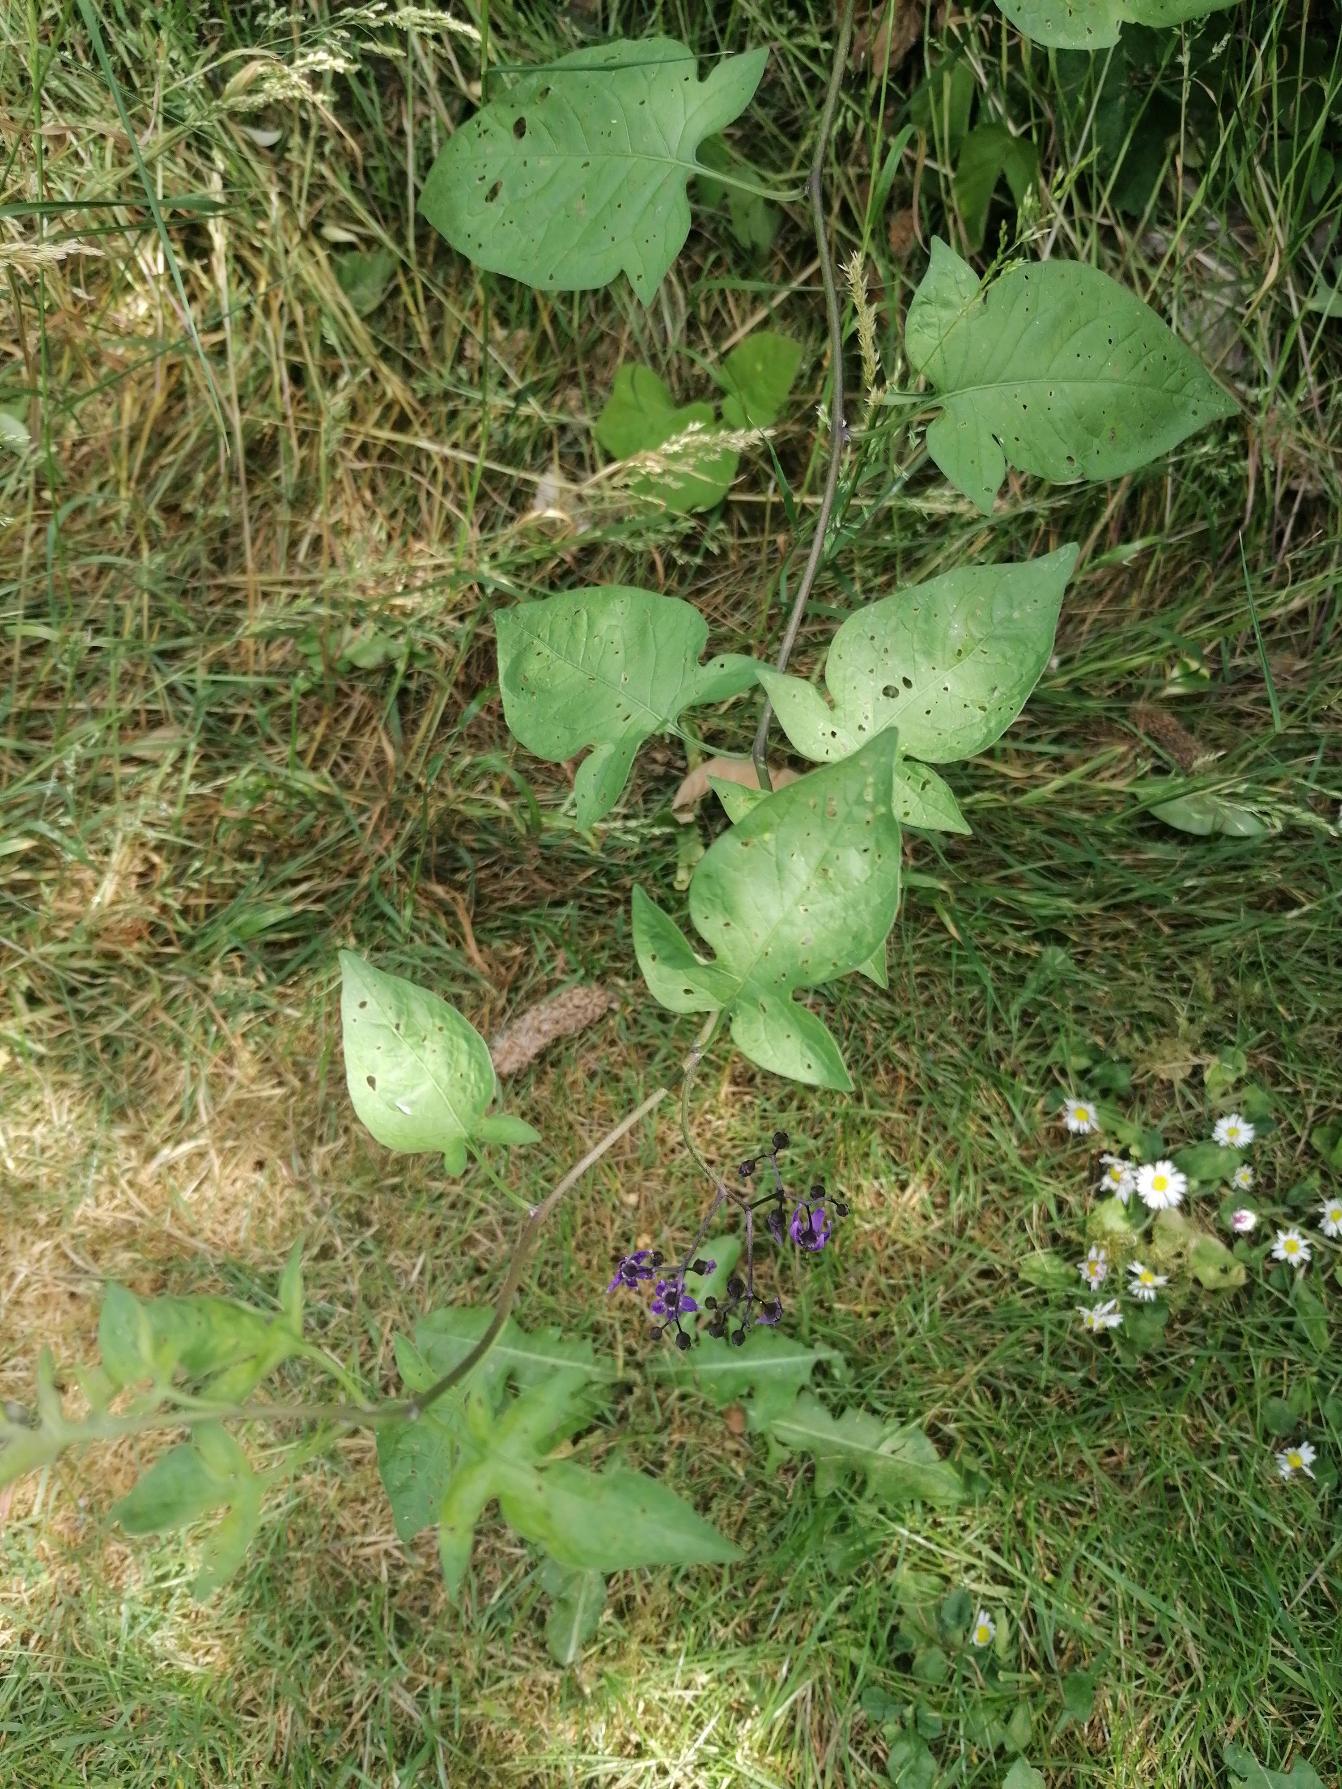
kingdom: Plantae
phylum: Tracheophyta
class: Magnoliopsida
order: Solanales
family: Solanaceae
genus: Solanum
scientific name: Solanum dulcamara
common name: Bittersød natskygge
